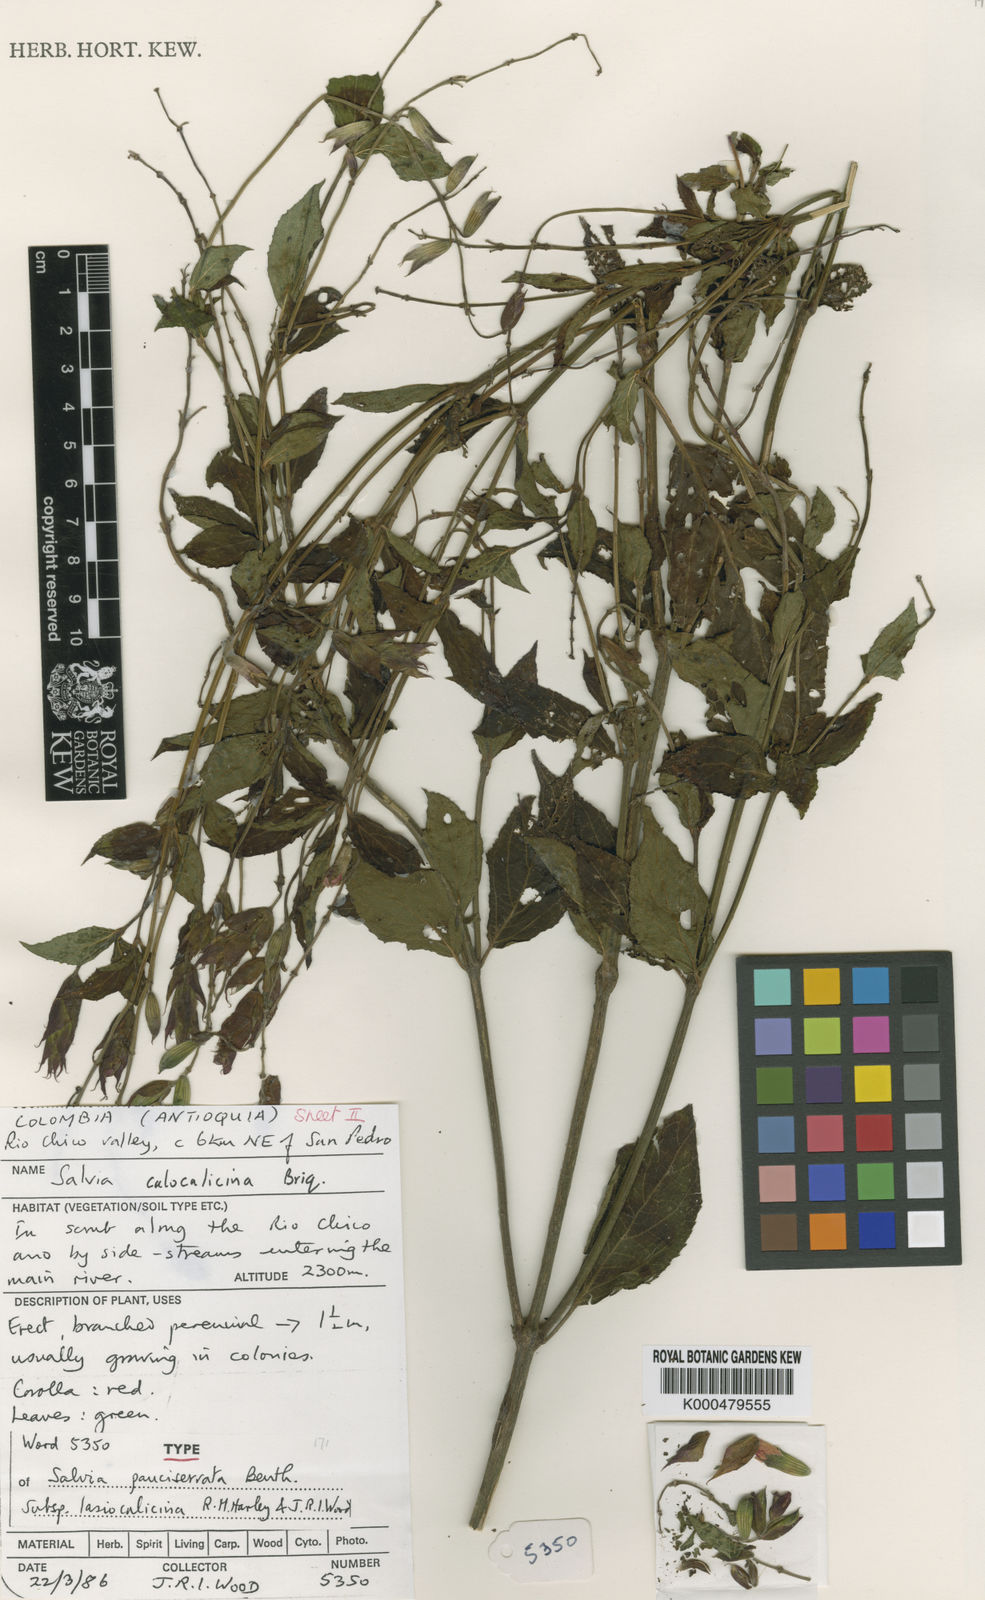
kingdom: Plantae
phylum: Tracheophyta
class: Magnoliopsida
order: Lamiales
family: Lamiaceae
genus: Salvia
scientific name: Salvia pauciserrata
